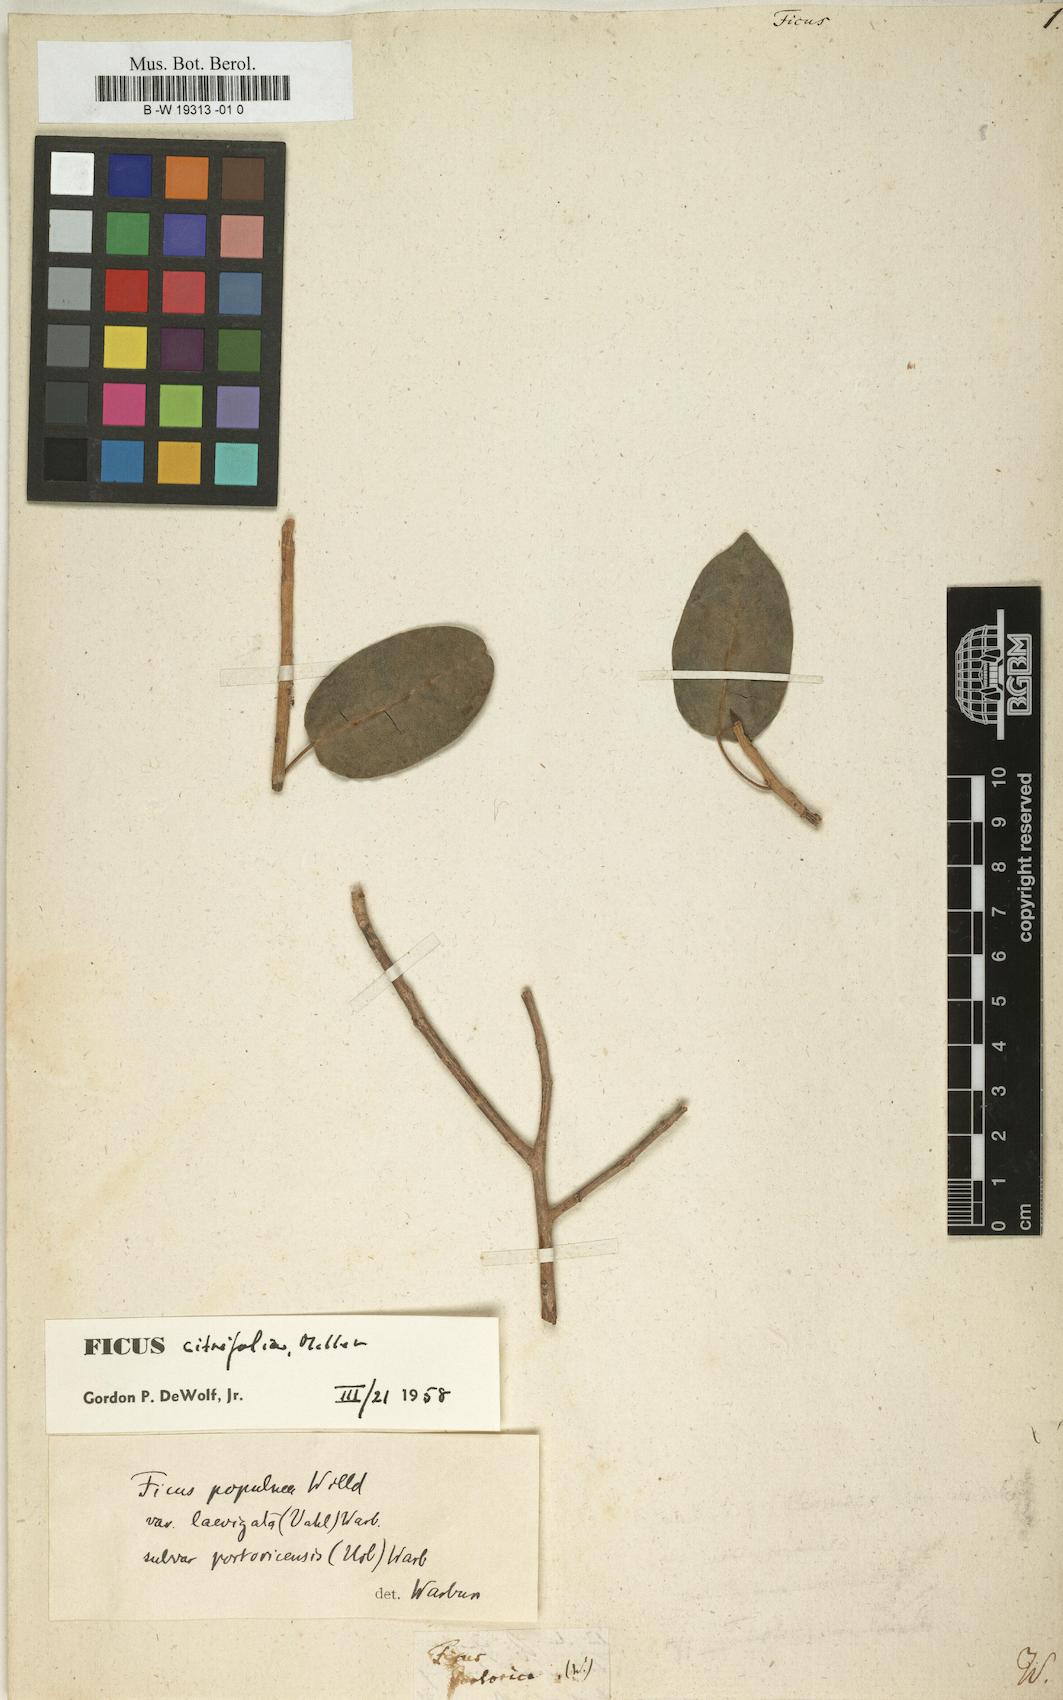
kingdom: Plantae
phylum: Tracheophyta
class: Magnoliopsida
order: Rosales
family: Moraceae
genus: Ficus
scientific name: Ficus
